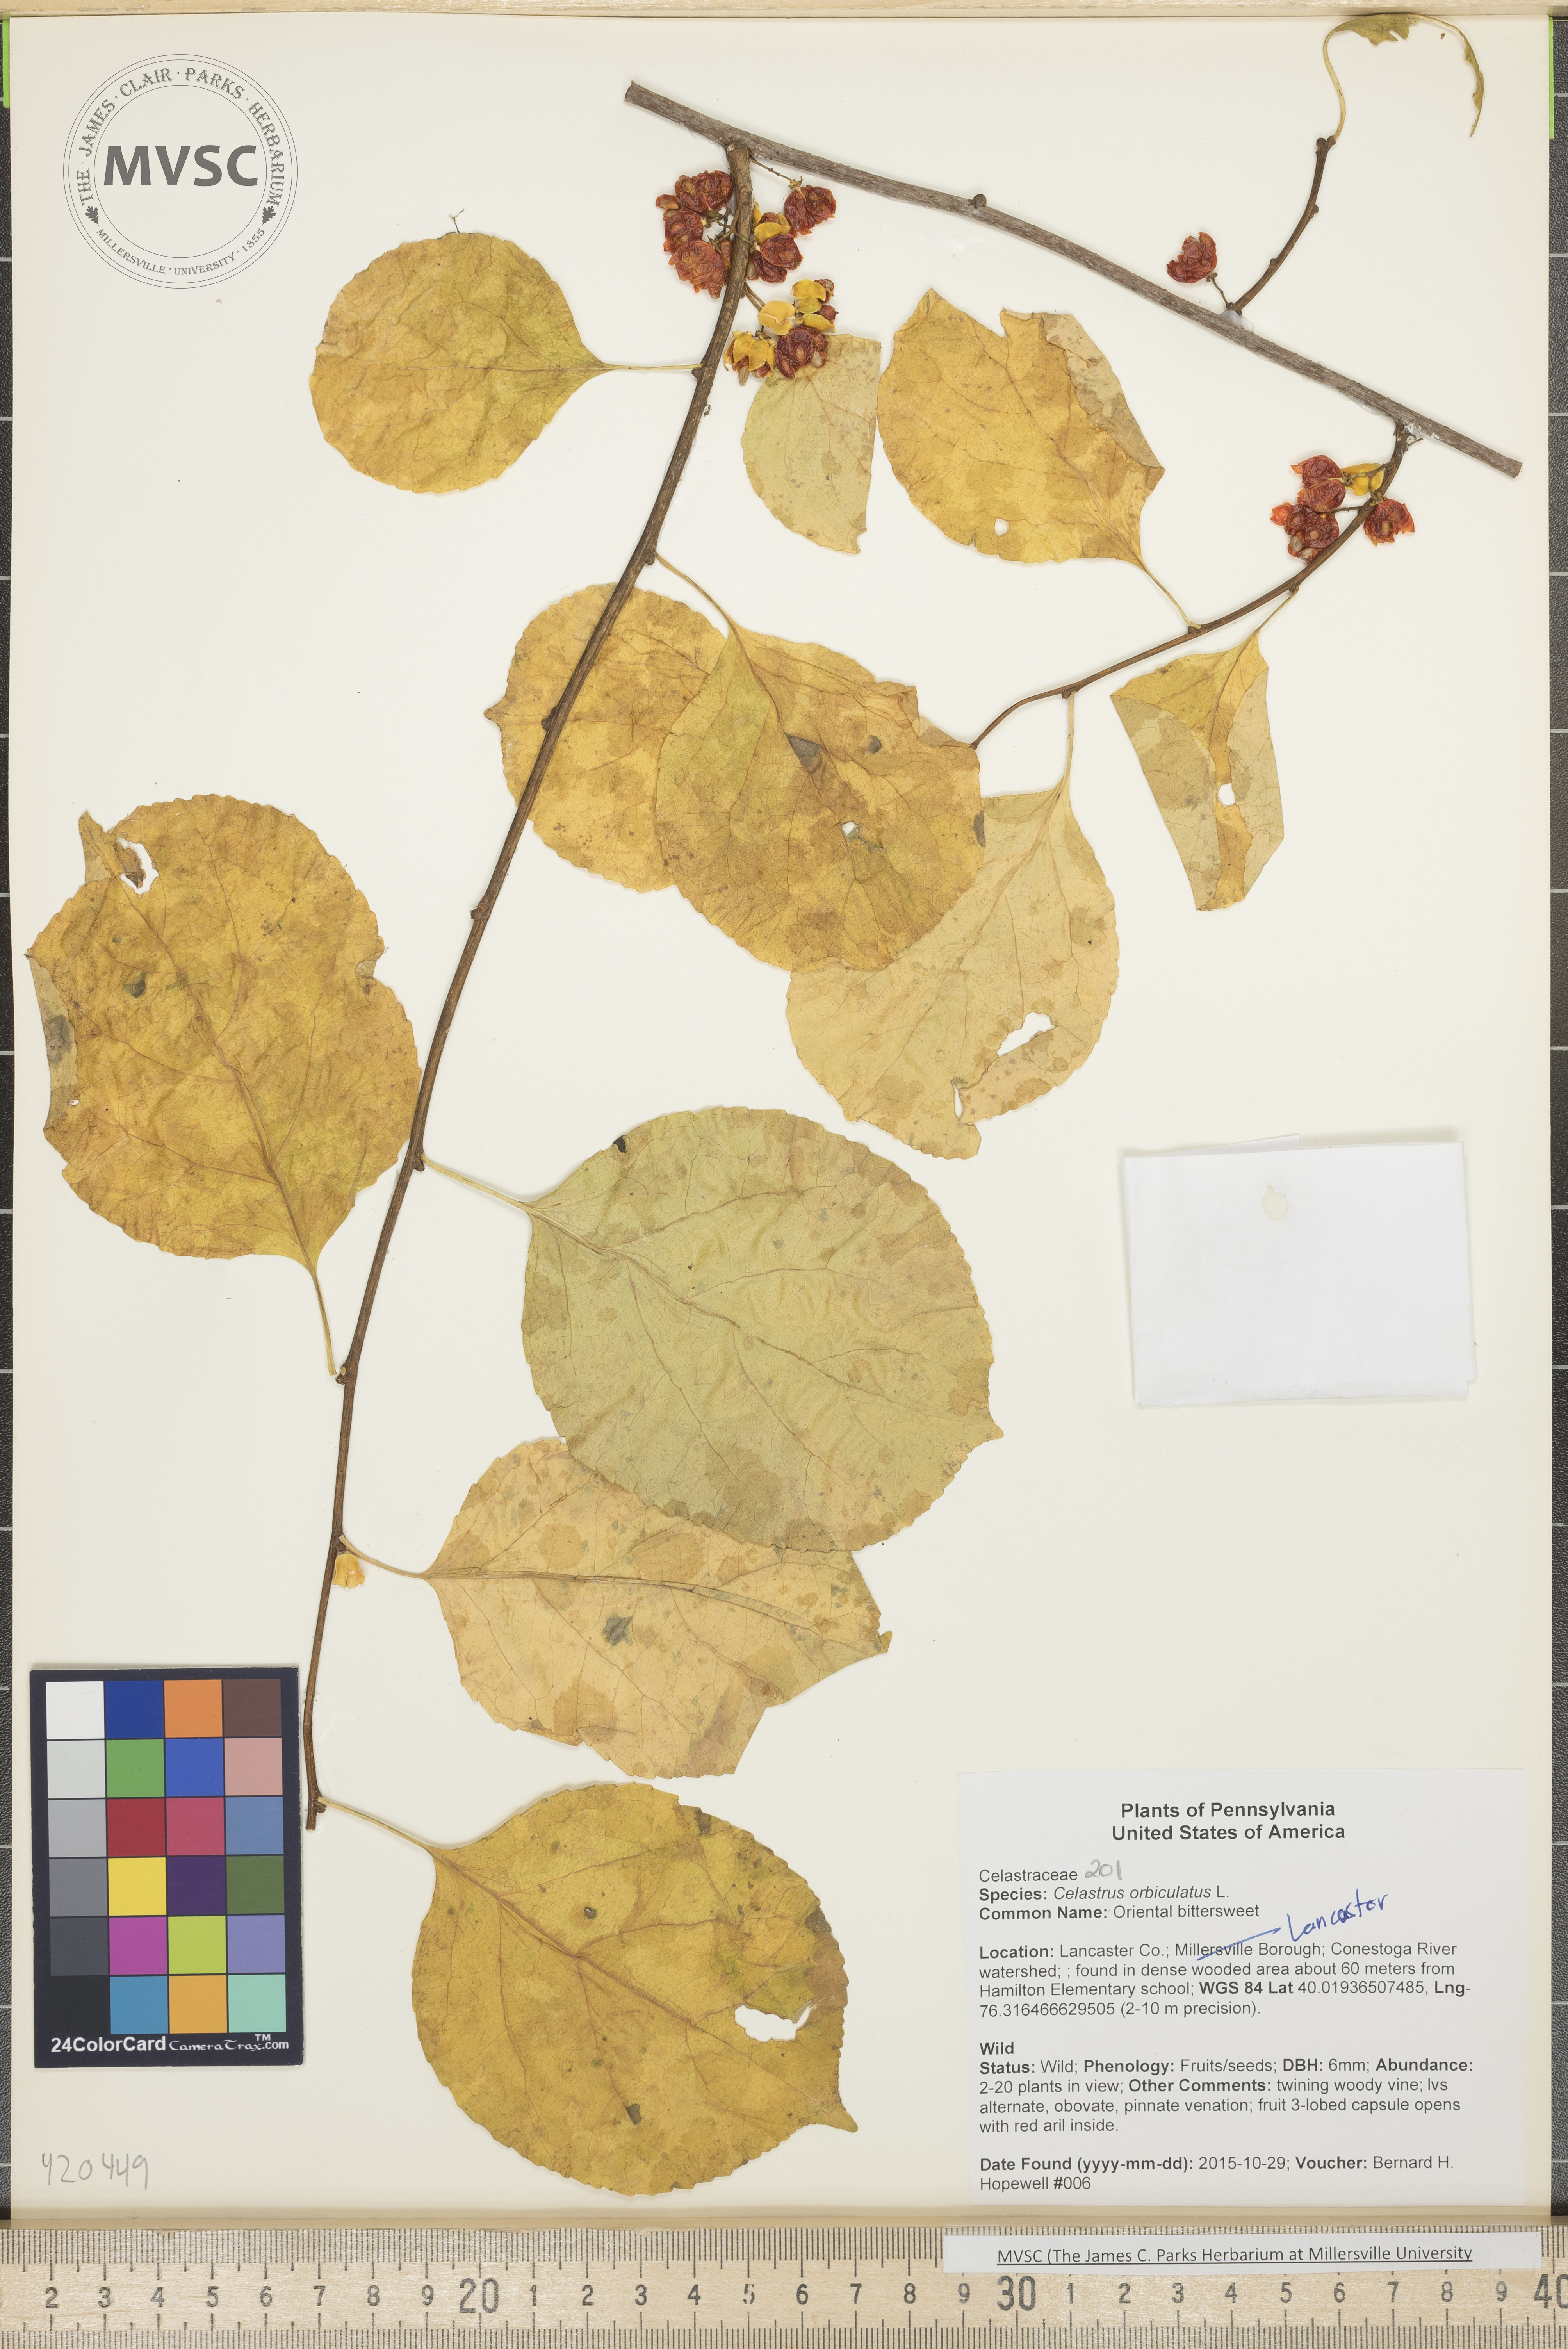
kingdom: Plantae
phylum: Tracheophyta
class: Magnoliopsida
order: Celastrales
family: Celastraceae
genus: Celastrus
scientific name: Celastrus orbiculatus
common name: Oriental bittersweet
